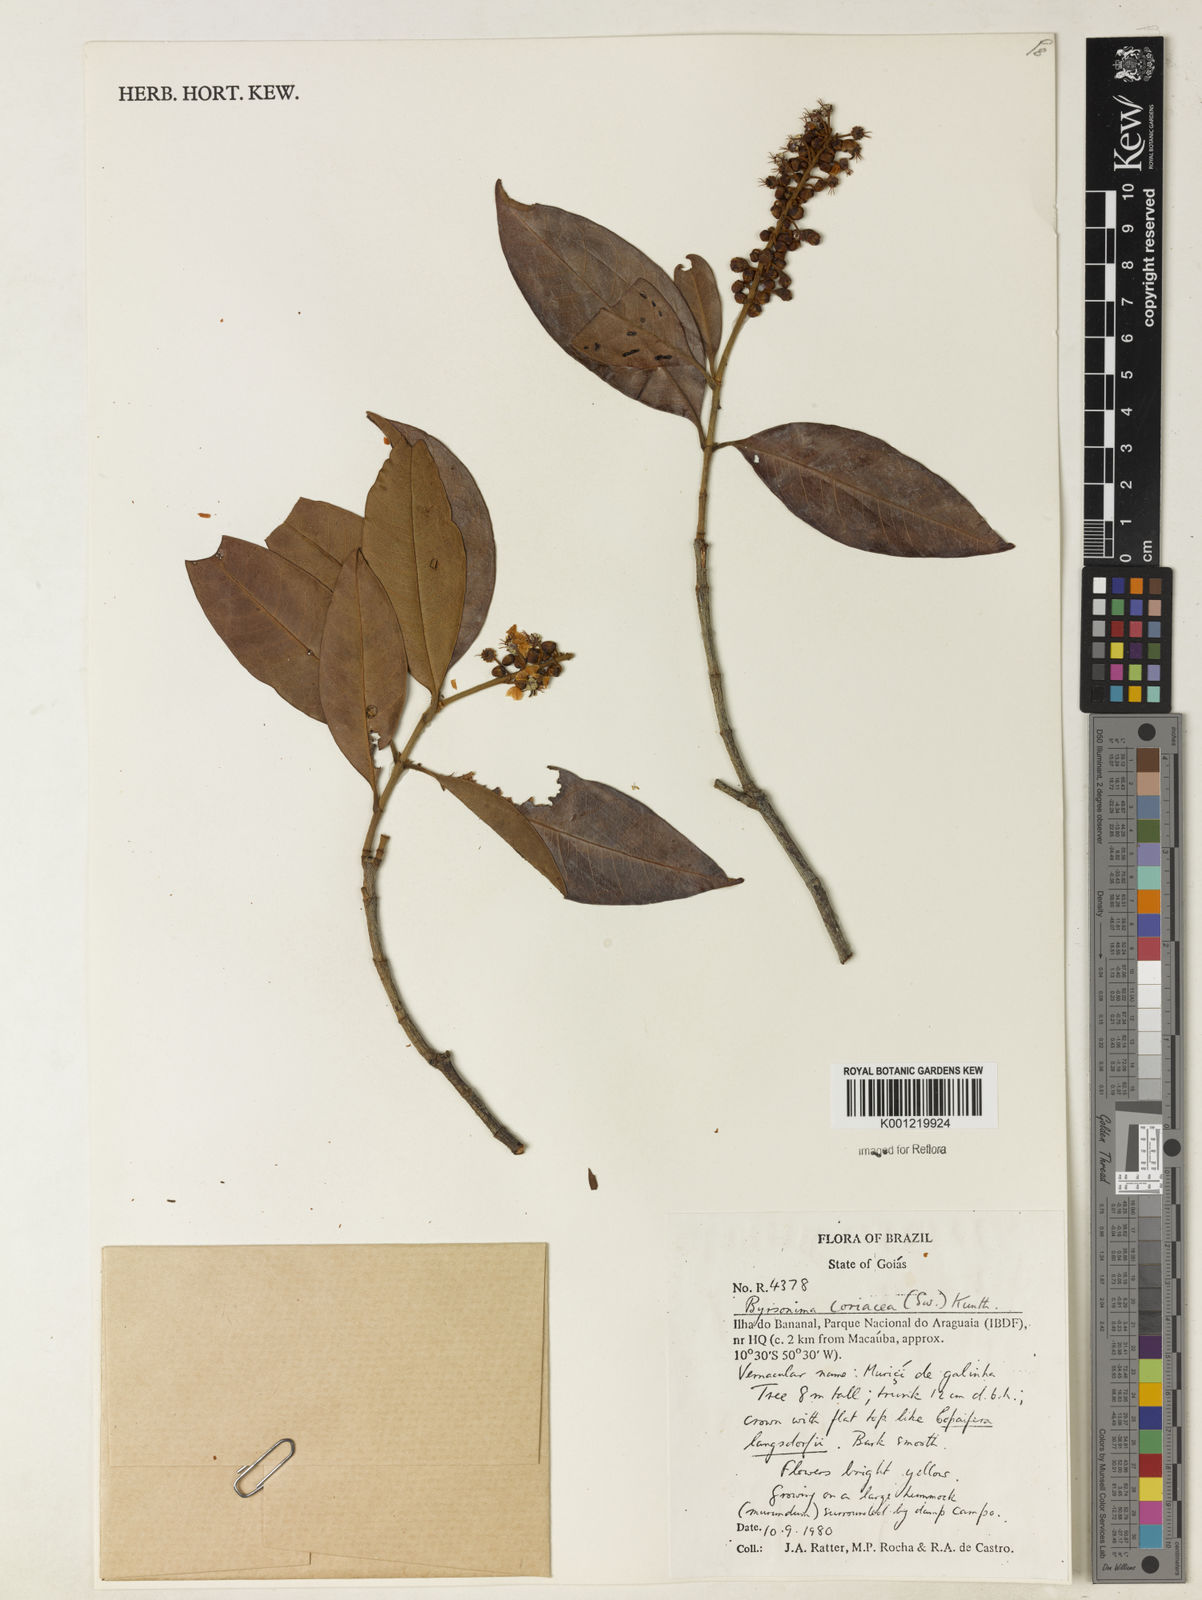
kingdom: Plantae
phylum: Tracheophyta
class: Magnoliopsida
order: Malpighiales
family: Malpighiaceae
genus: Byrsonima
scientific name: Byrsonima
